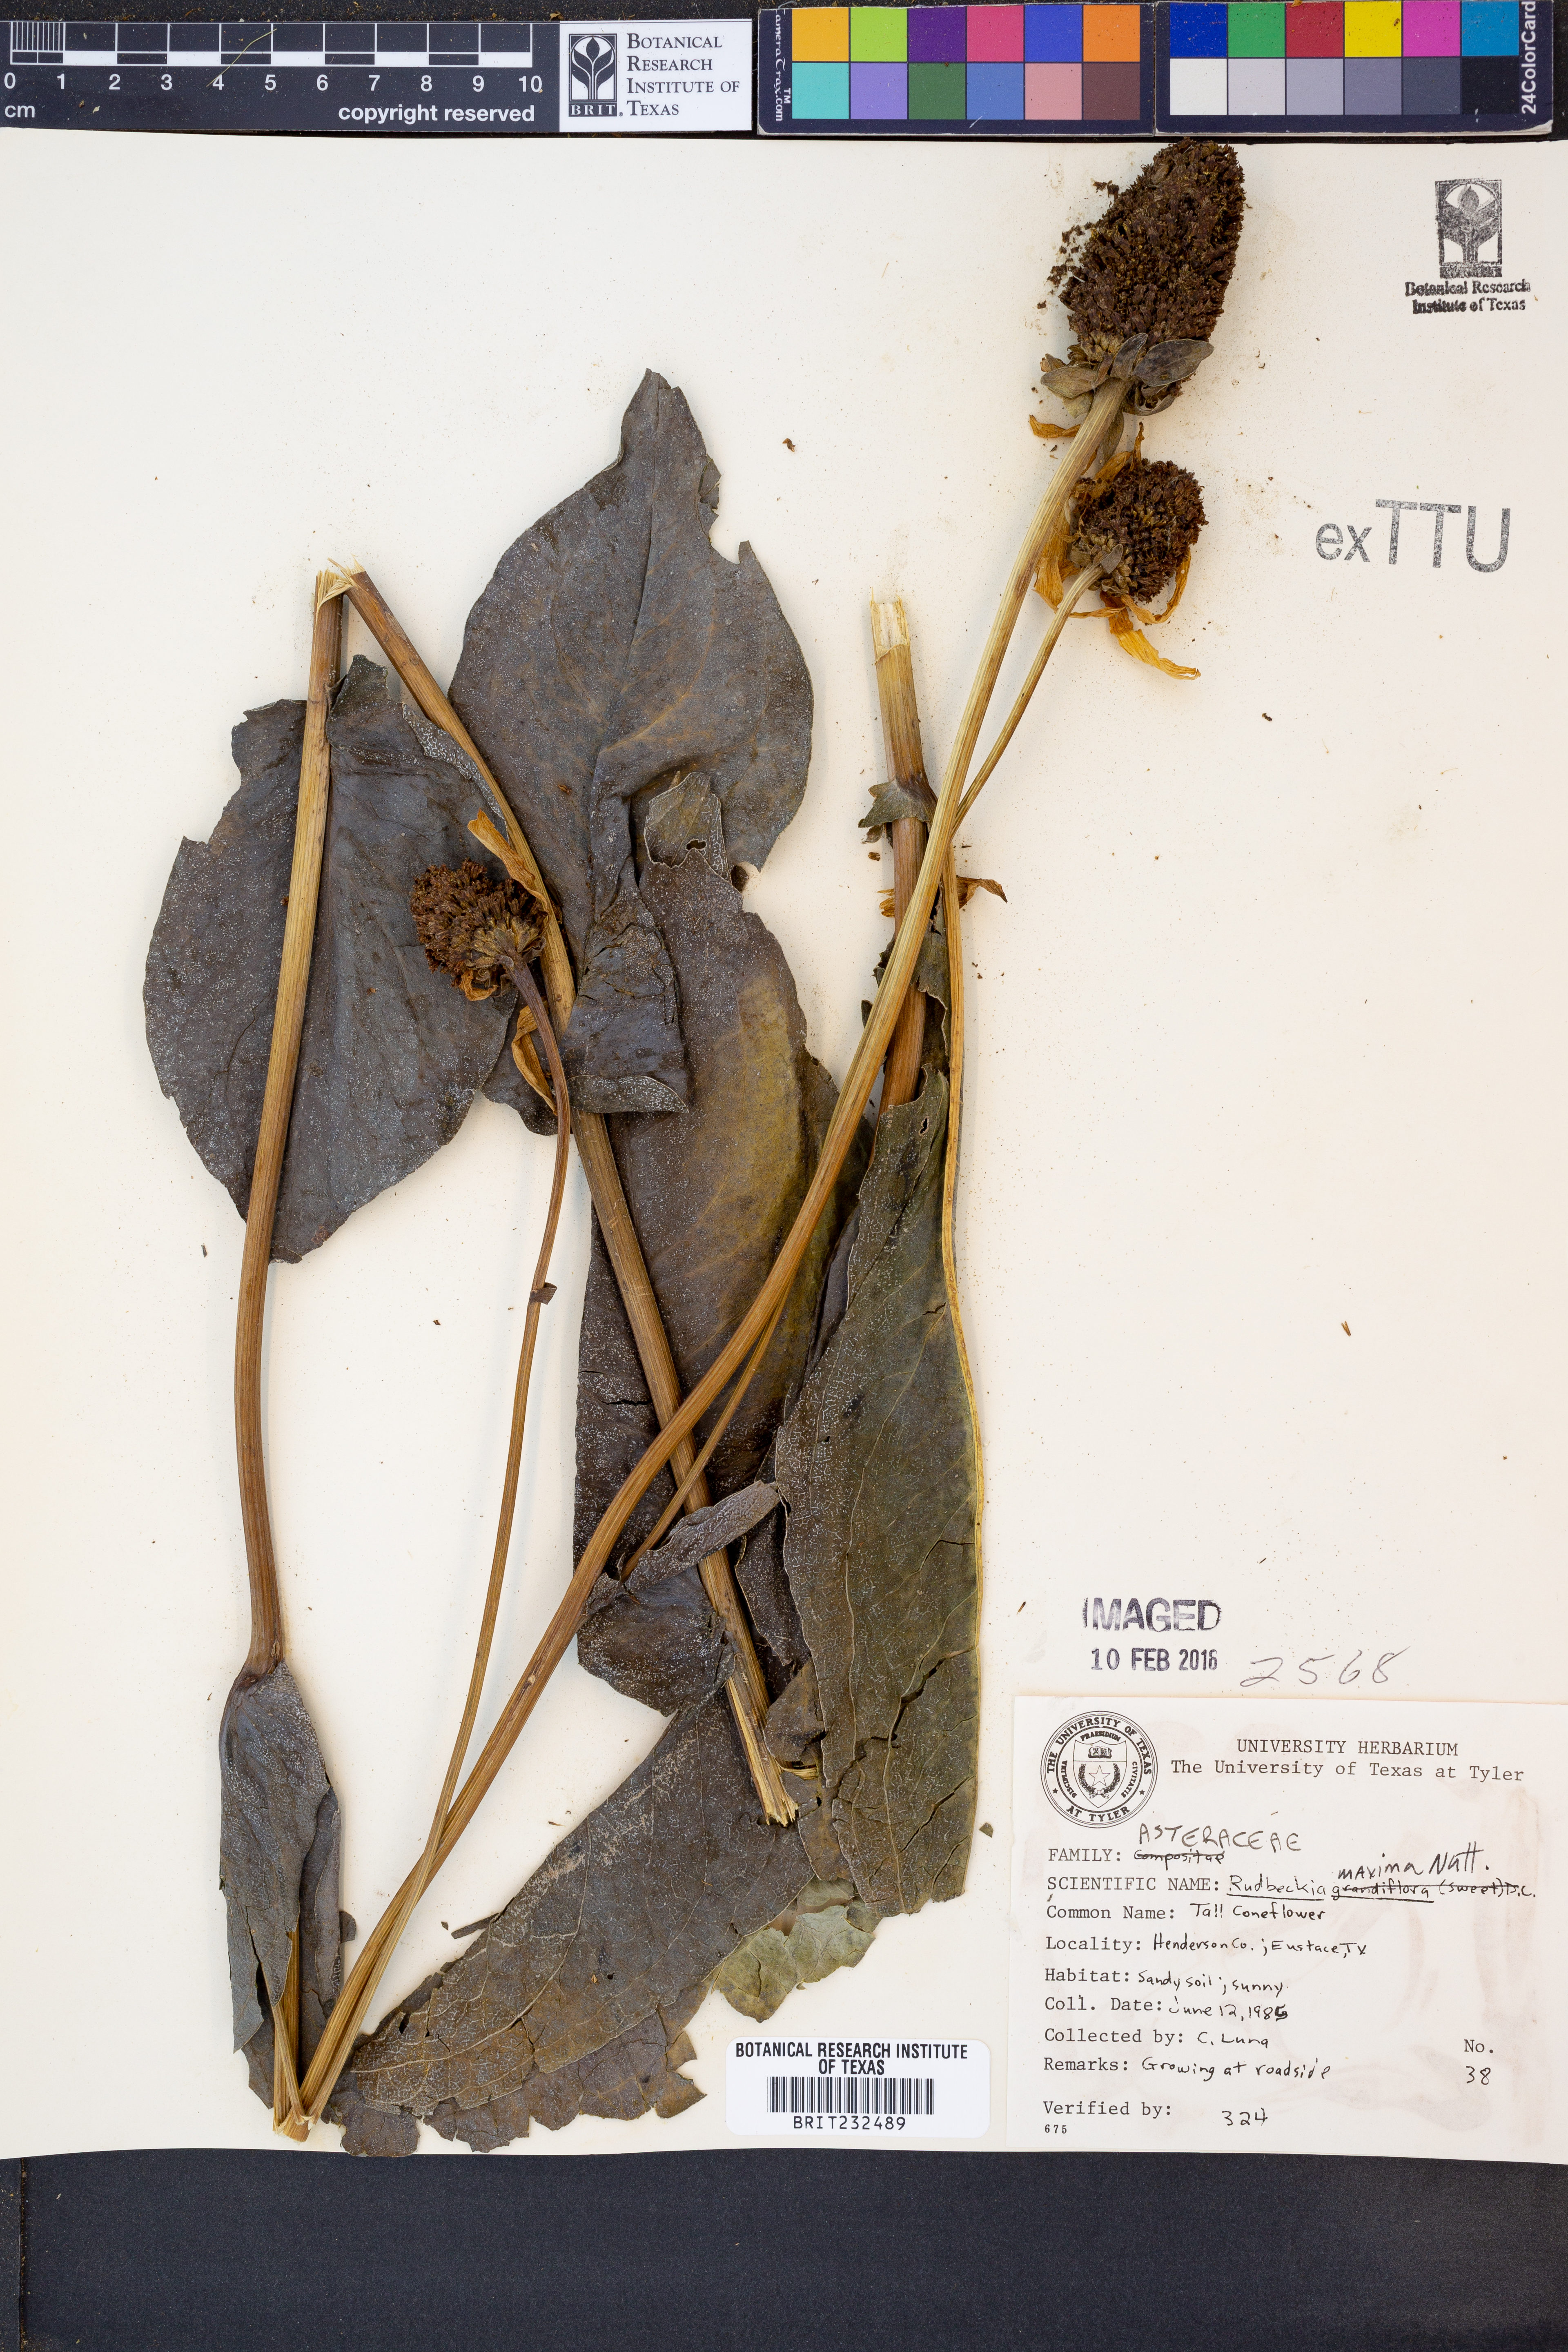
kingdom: Plantae
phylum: Tracheophyta
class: Magnoliopsida
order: Asterales
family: Asteraceae
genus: Rudbeckia
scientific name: Rudbeckia maxima
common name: Cabbage coneflower
